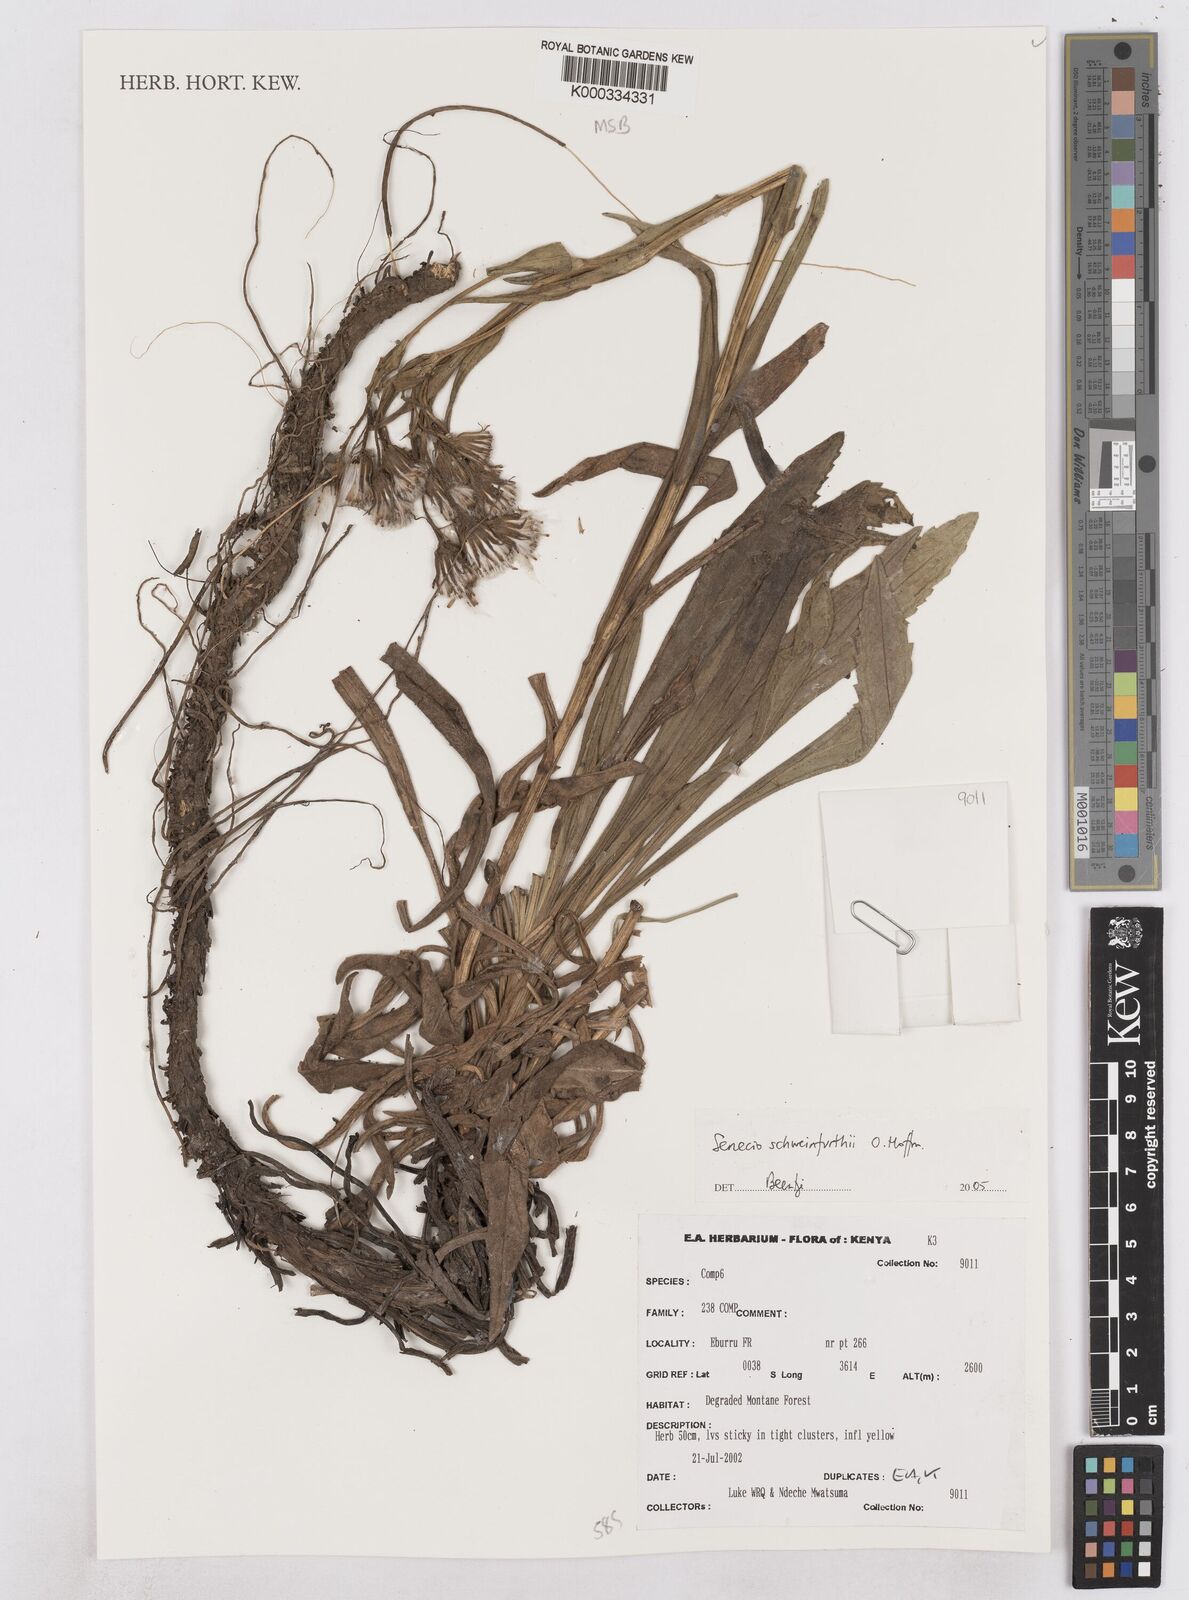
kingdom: Plantae
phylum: Tracheophyta
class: Magnoliopsida
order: Asterales
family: Asteraceae
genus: Senecio
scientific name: Senecio schweinfurthii
